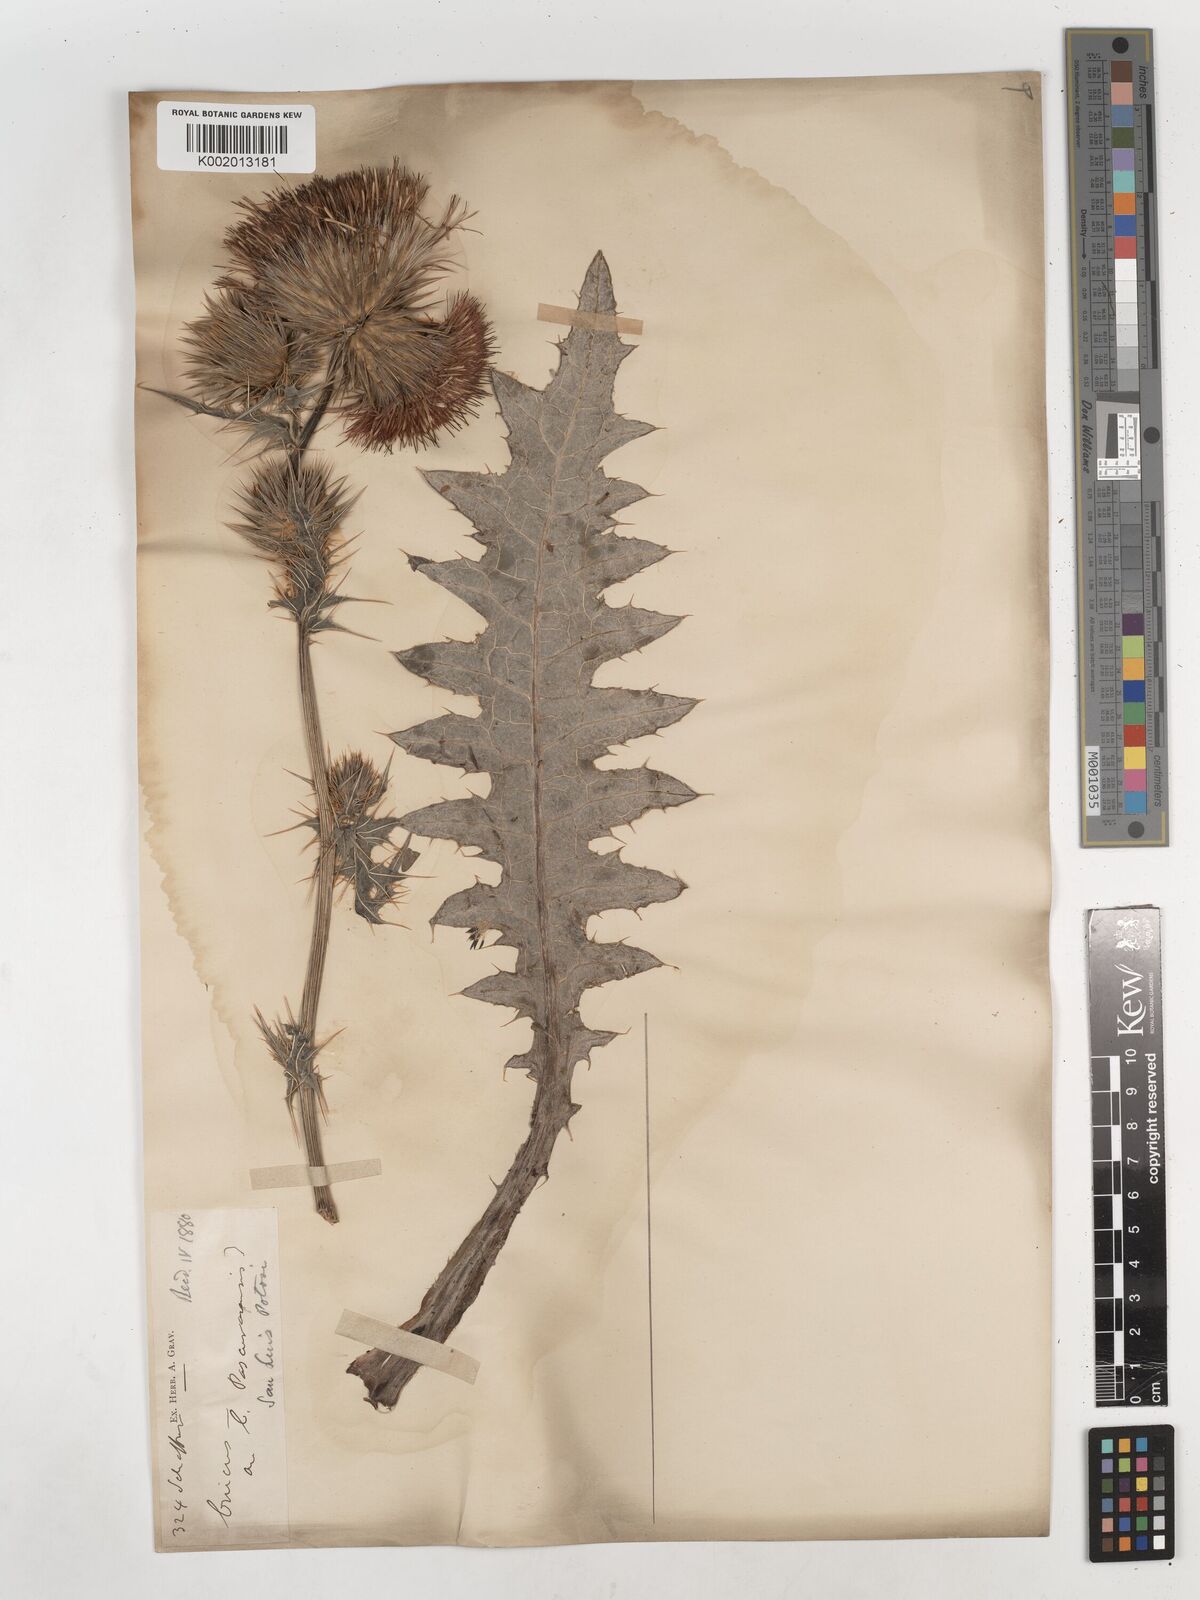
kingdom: Plantae
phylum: Tracheophyta
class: Magnoliopsida
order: Asterales
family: Asteraceae
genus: Cirsium
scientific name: Cirsium
